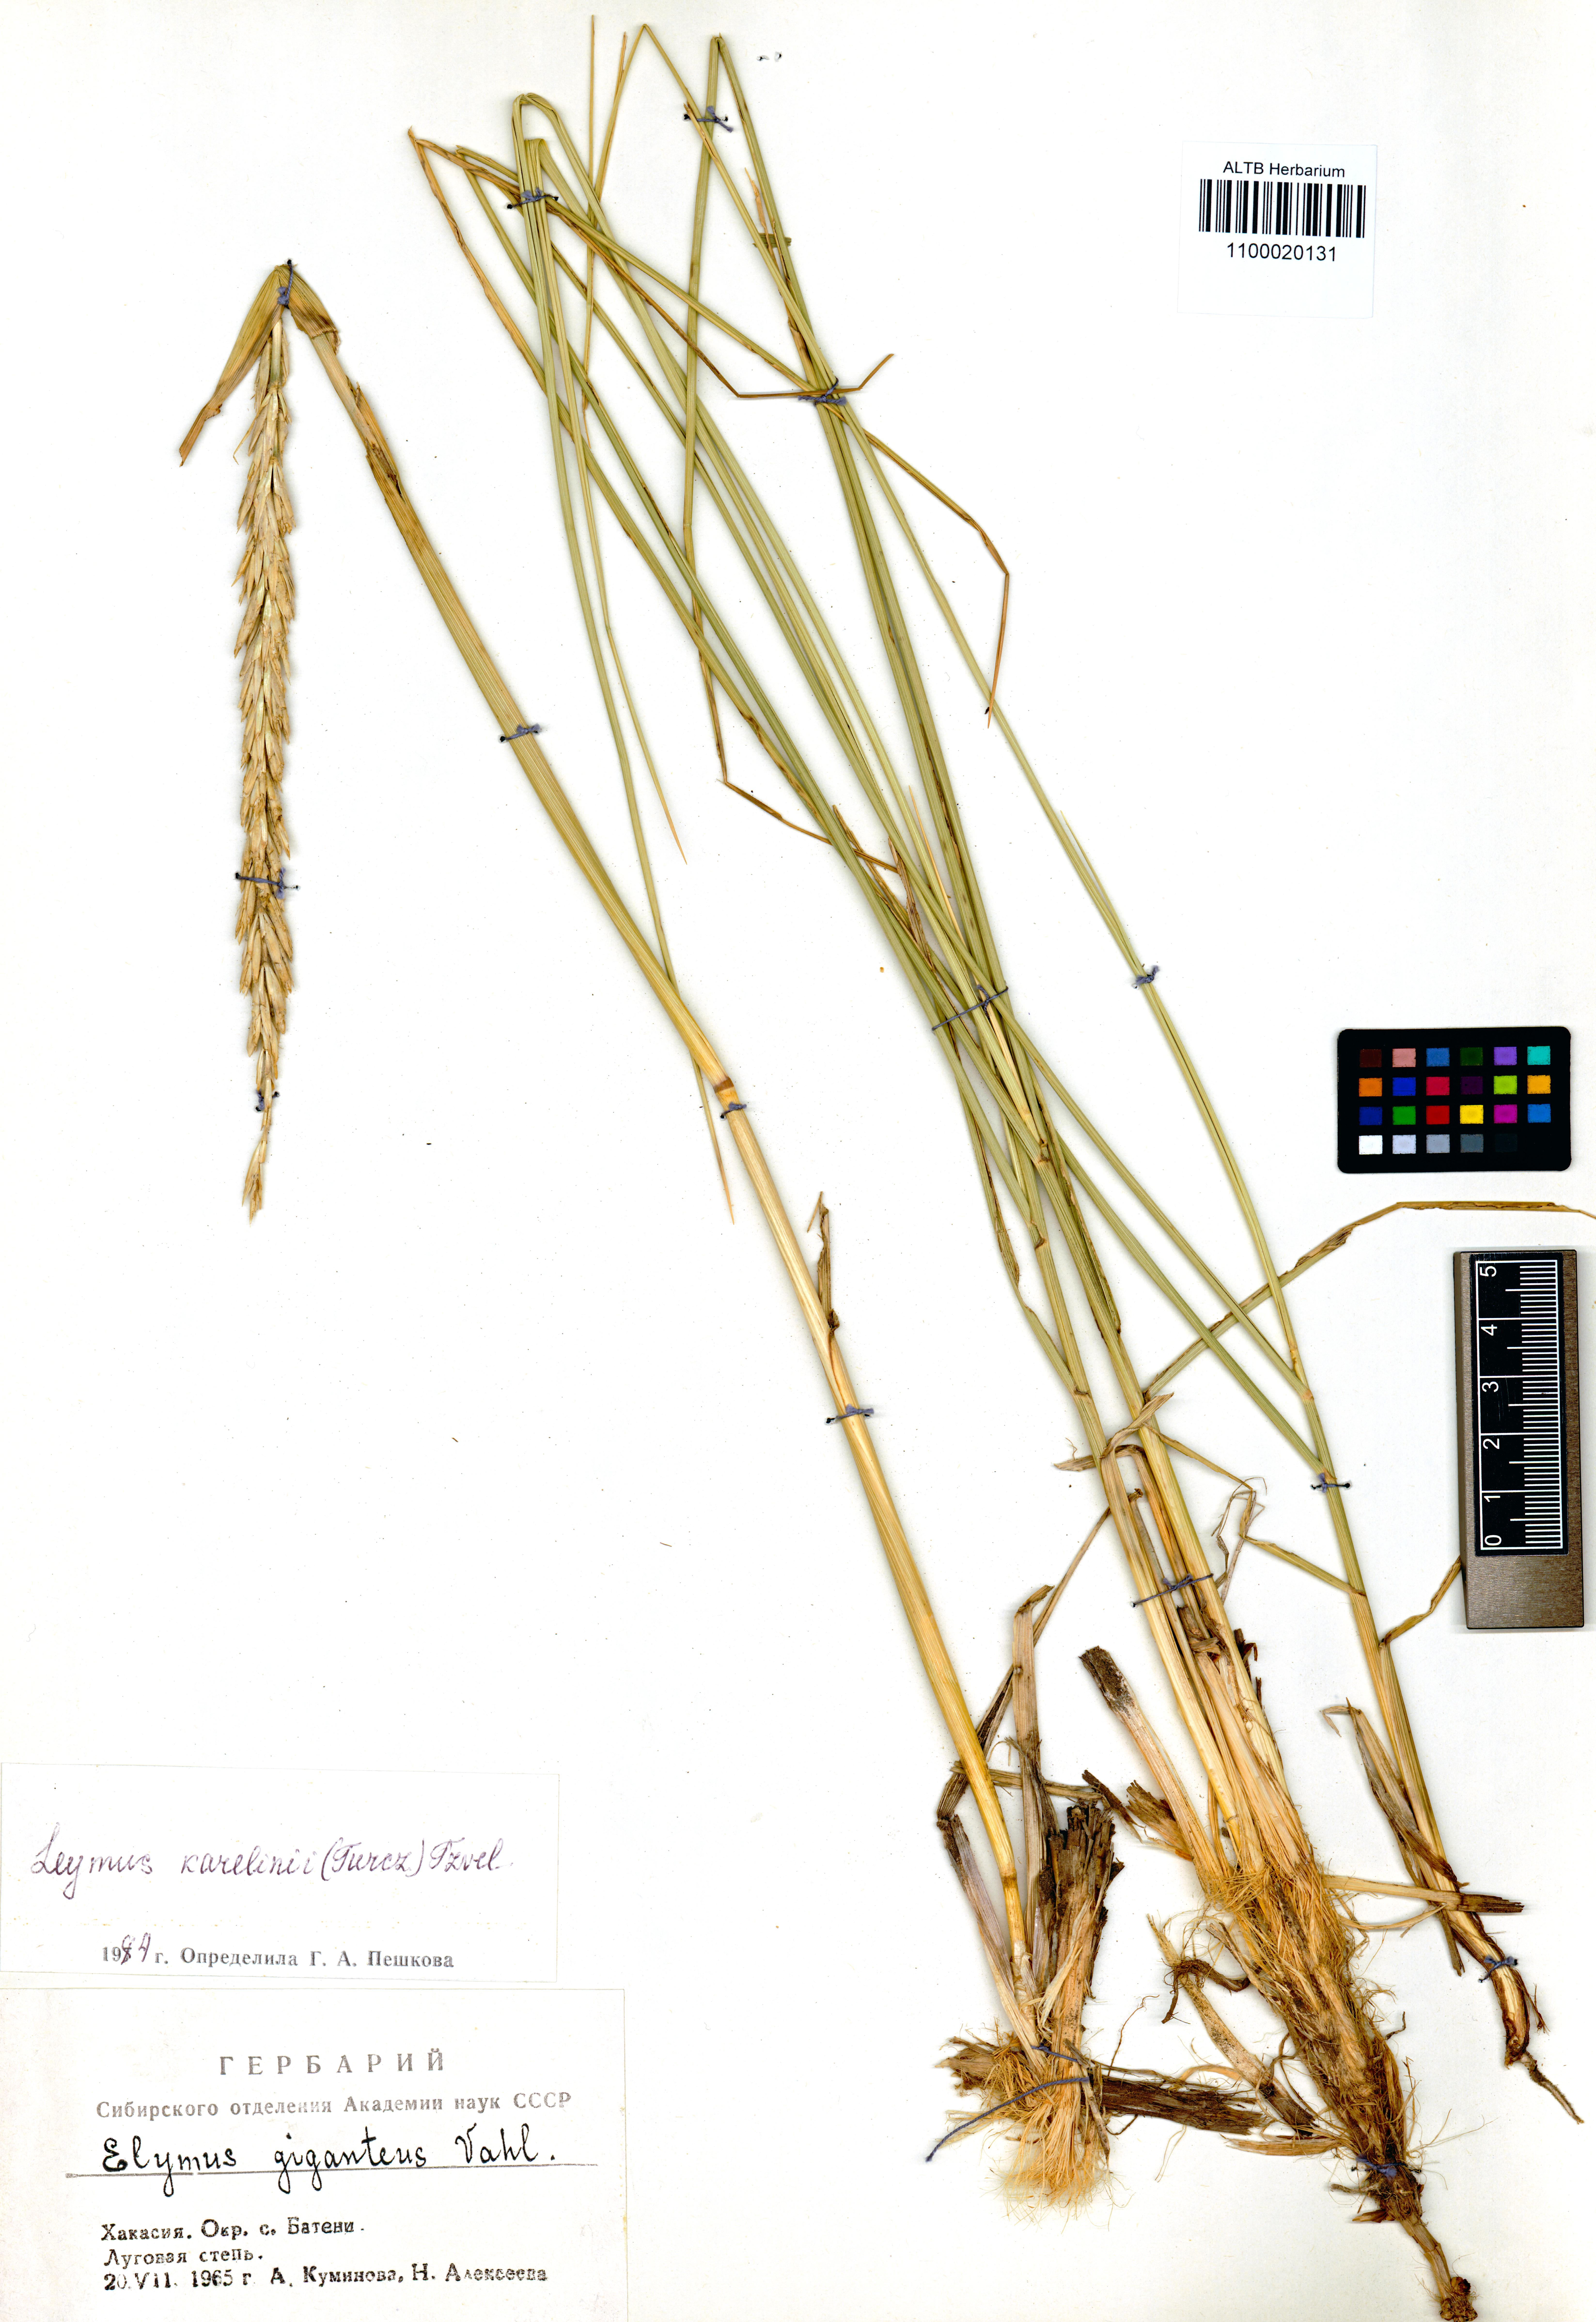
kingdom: Plantae
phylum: Tracheophyta
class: Liliopsida
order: Poales
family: Poaceae
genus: Leymus
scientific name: Leymus karelinii
